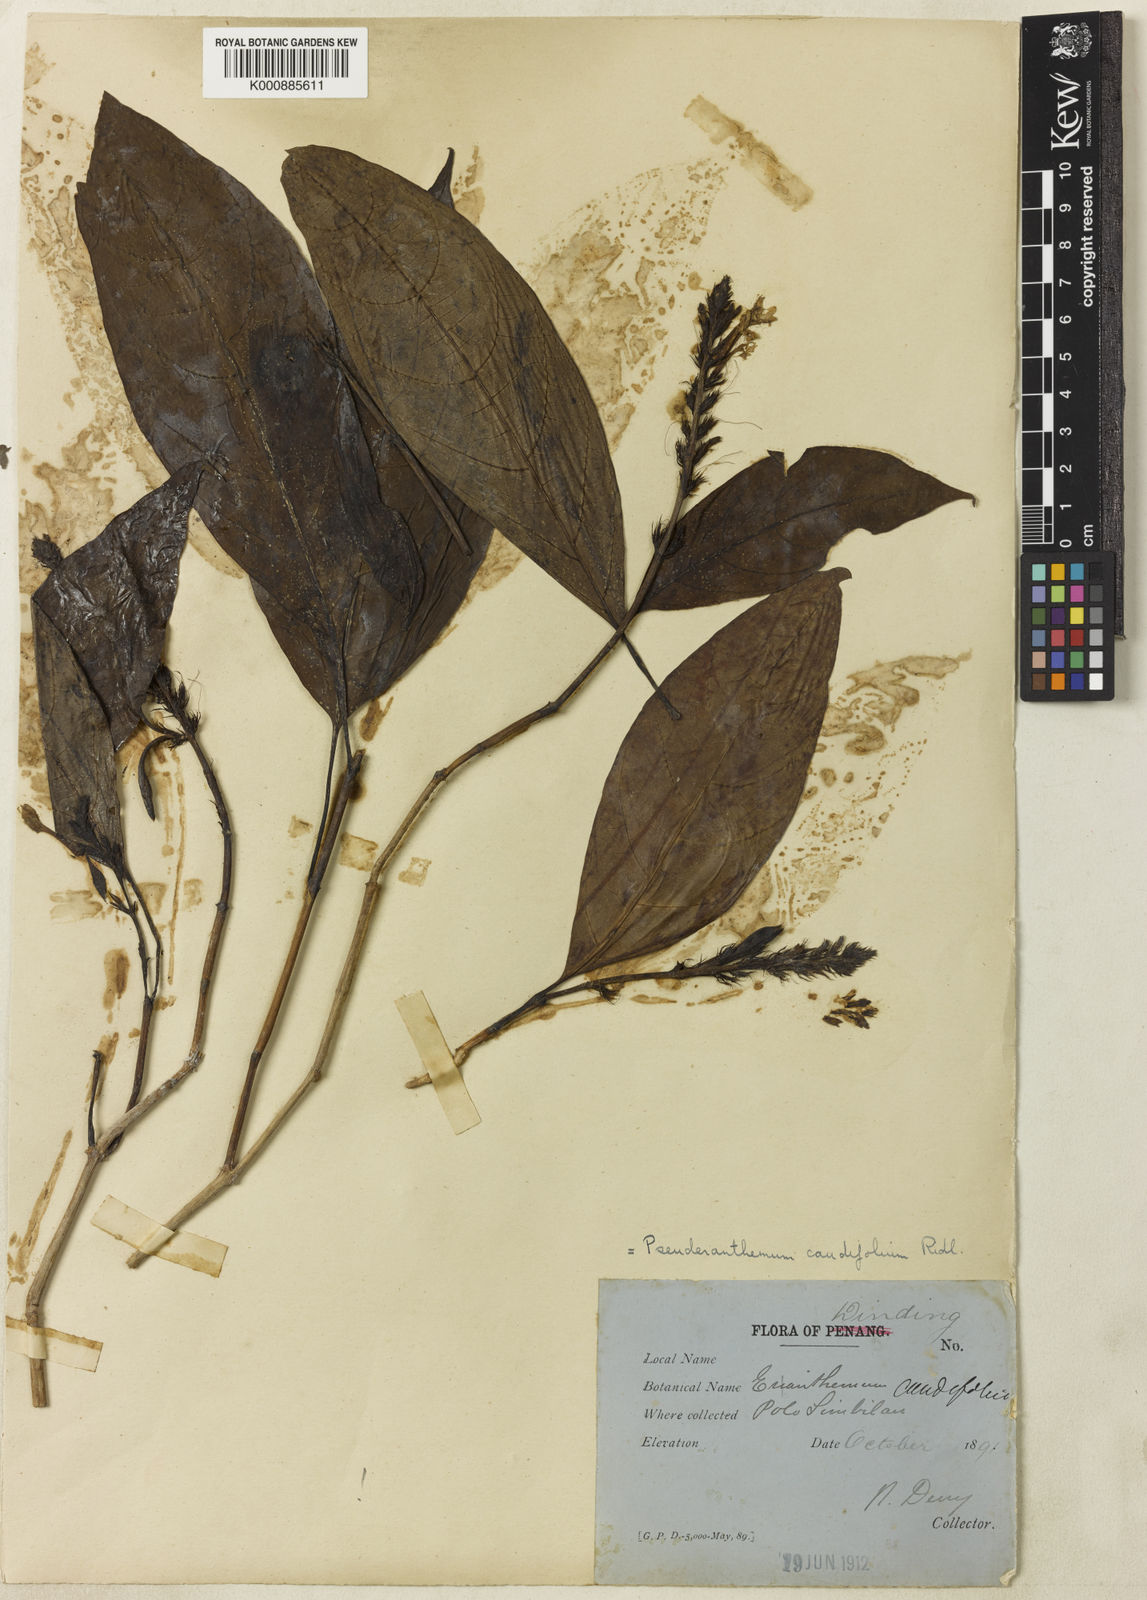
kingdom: Plantae
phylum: Tracheophyta
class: Magnoliopsida
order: Lamiales
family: Acanthaceae
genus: Pseuderanthemum
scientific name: Pseuderanthemum caudifolium
